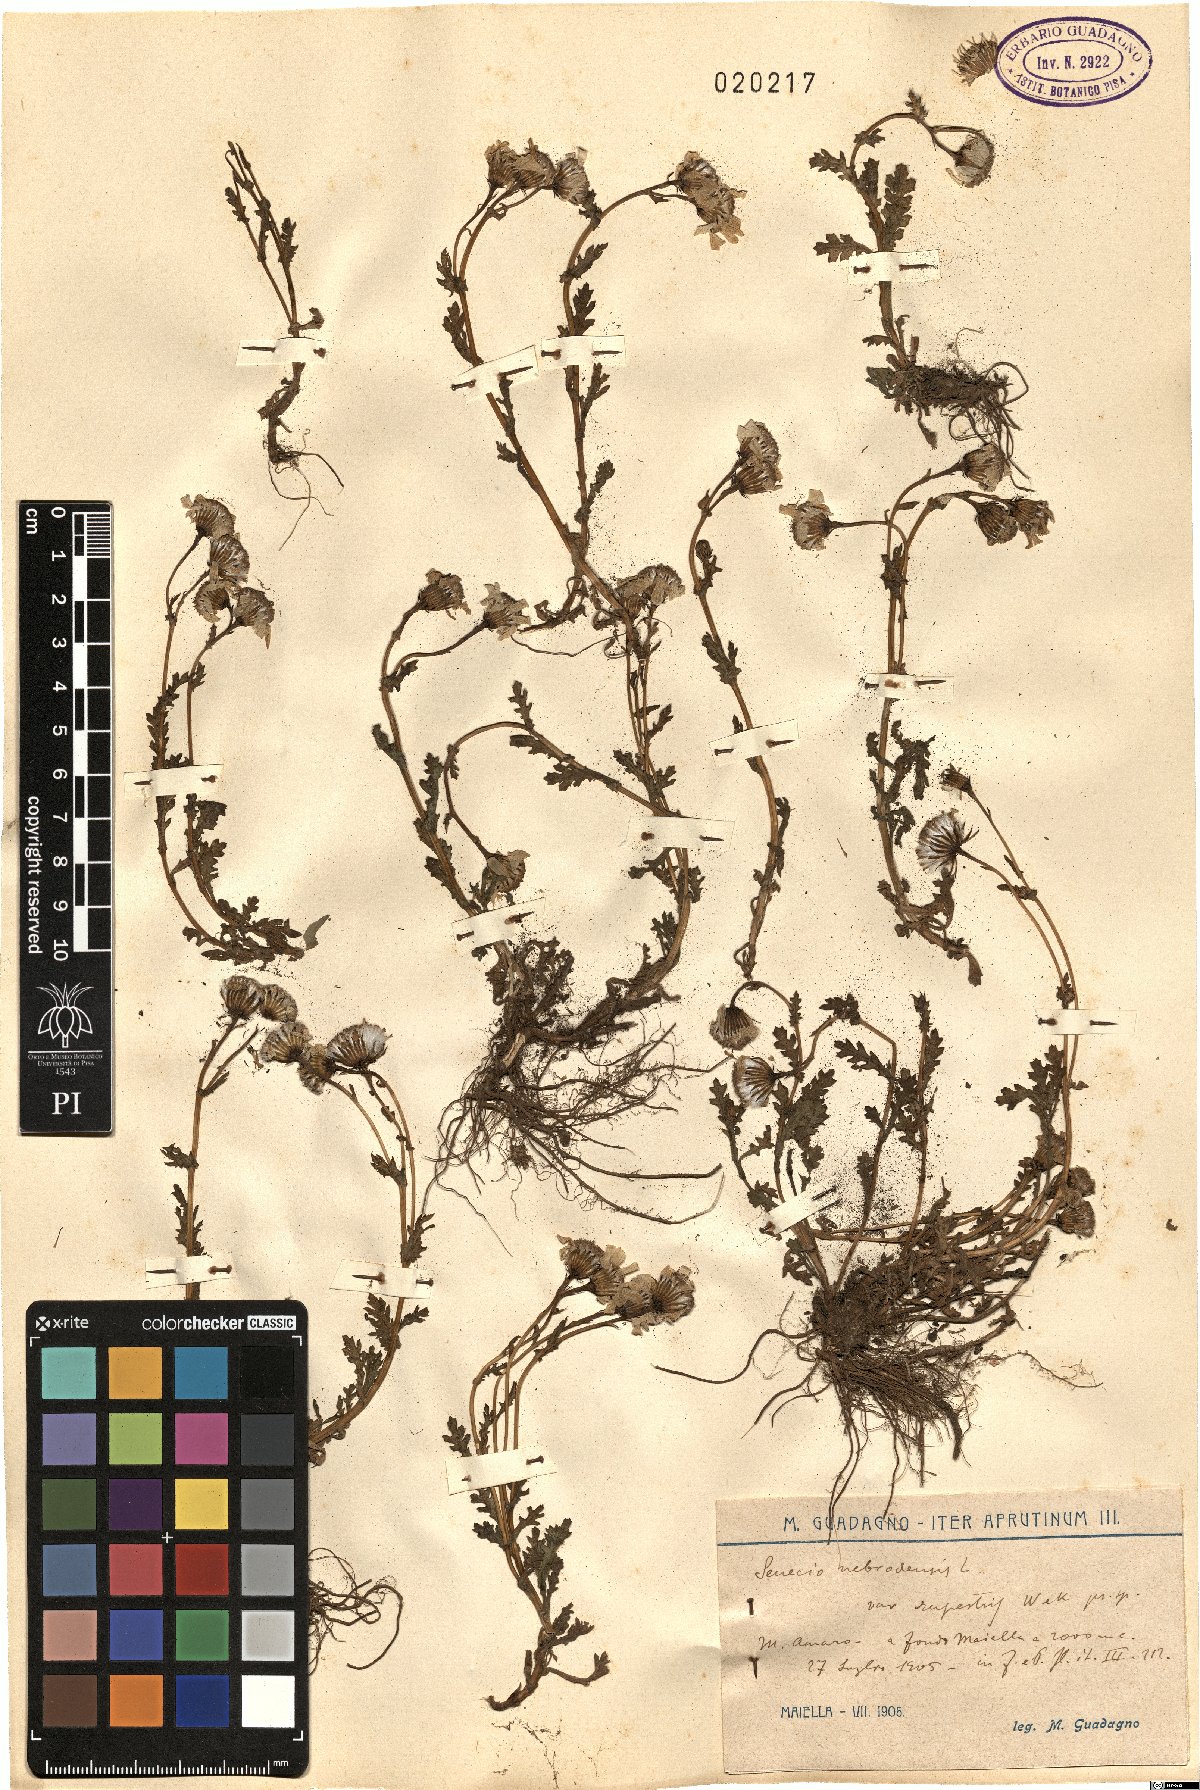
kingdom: Plantae
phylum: Tracheophyta
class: Magnoliopsida
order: Asterales
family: Asteraceae
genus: Senecio
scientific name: Senecio rupestris
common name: Rock ragwort
